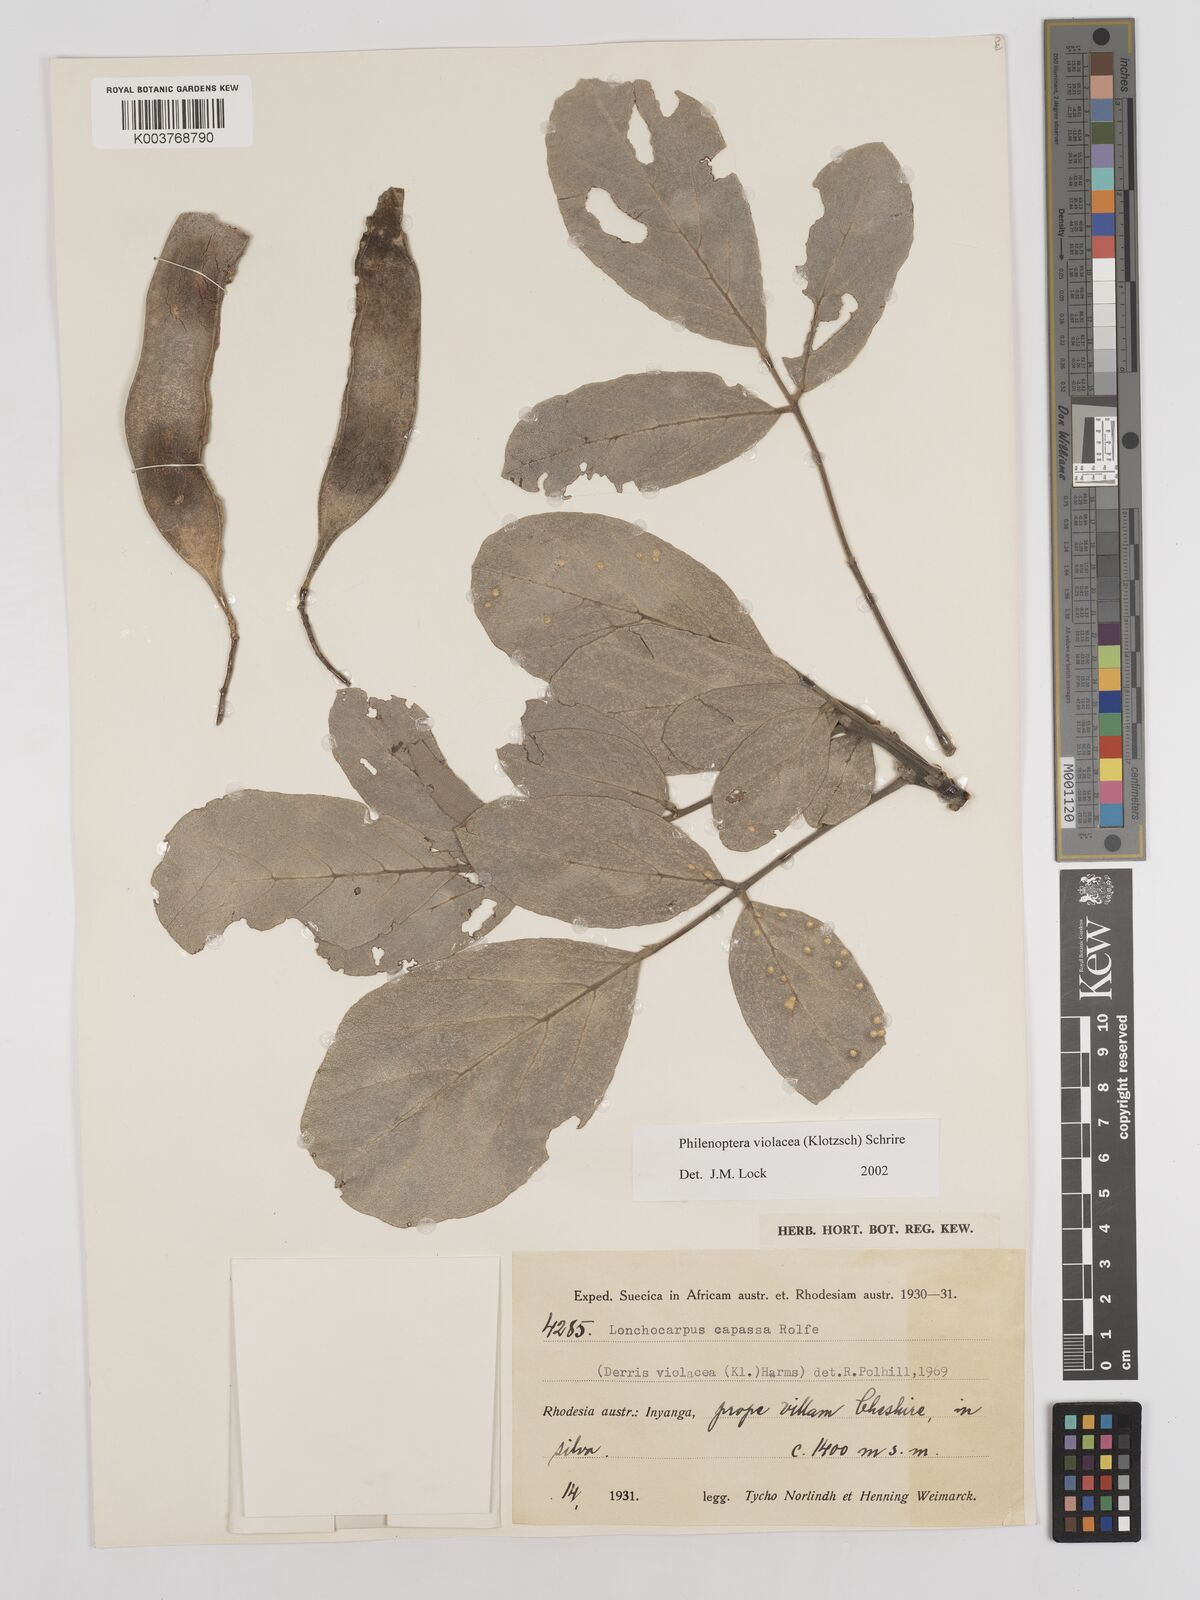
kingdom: Plantae
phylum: Tracheophyta
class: Magnoliopsida
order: Fabales
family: Fabaceae
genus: Philenoptera
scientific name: Philenoptera violacea
